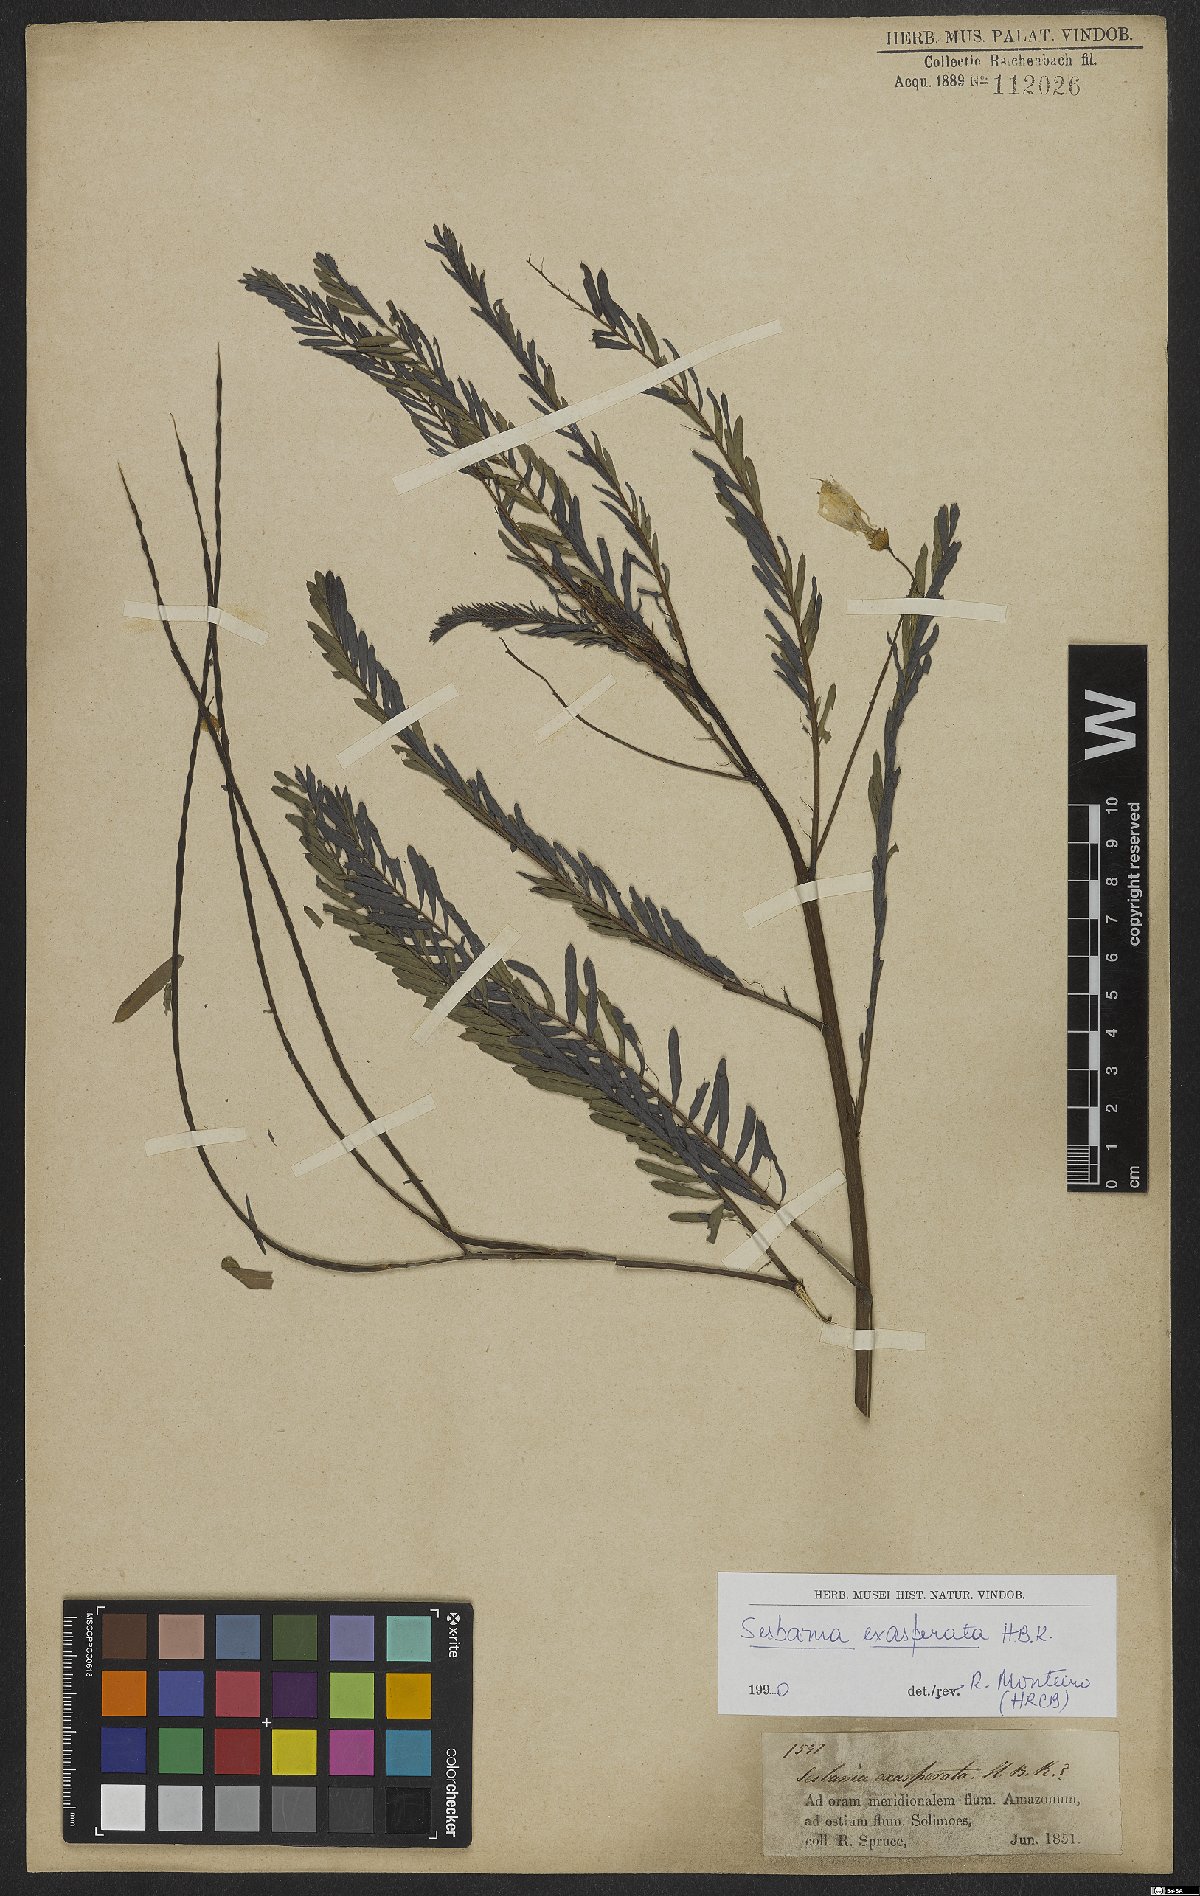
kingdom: Plantae
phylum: Tracheophyta
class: Magnoliopsida
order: Fabales
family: Fabaceae
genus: Sesbania
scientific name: Sesbania exasperata
